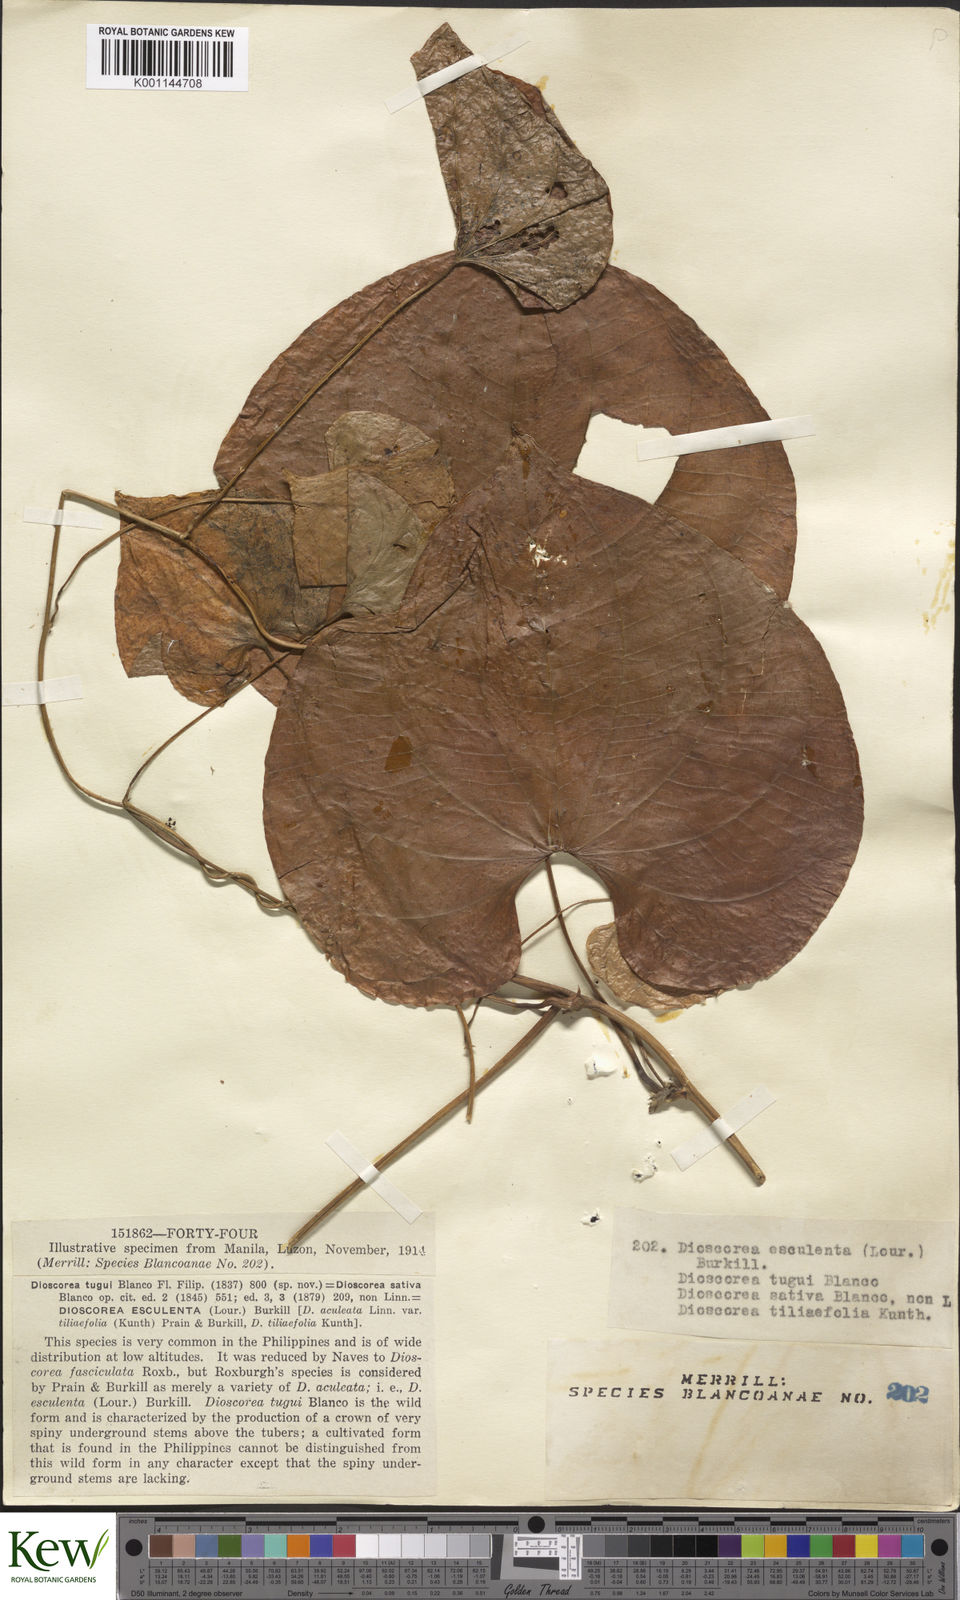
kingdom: Plantae
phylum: Tracheophyta
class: Liliopsida
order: Dioscoreales
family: Dioscoreaceae
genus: Dioscorea
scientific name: Dioscorea esculenta
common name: Chinese yam
